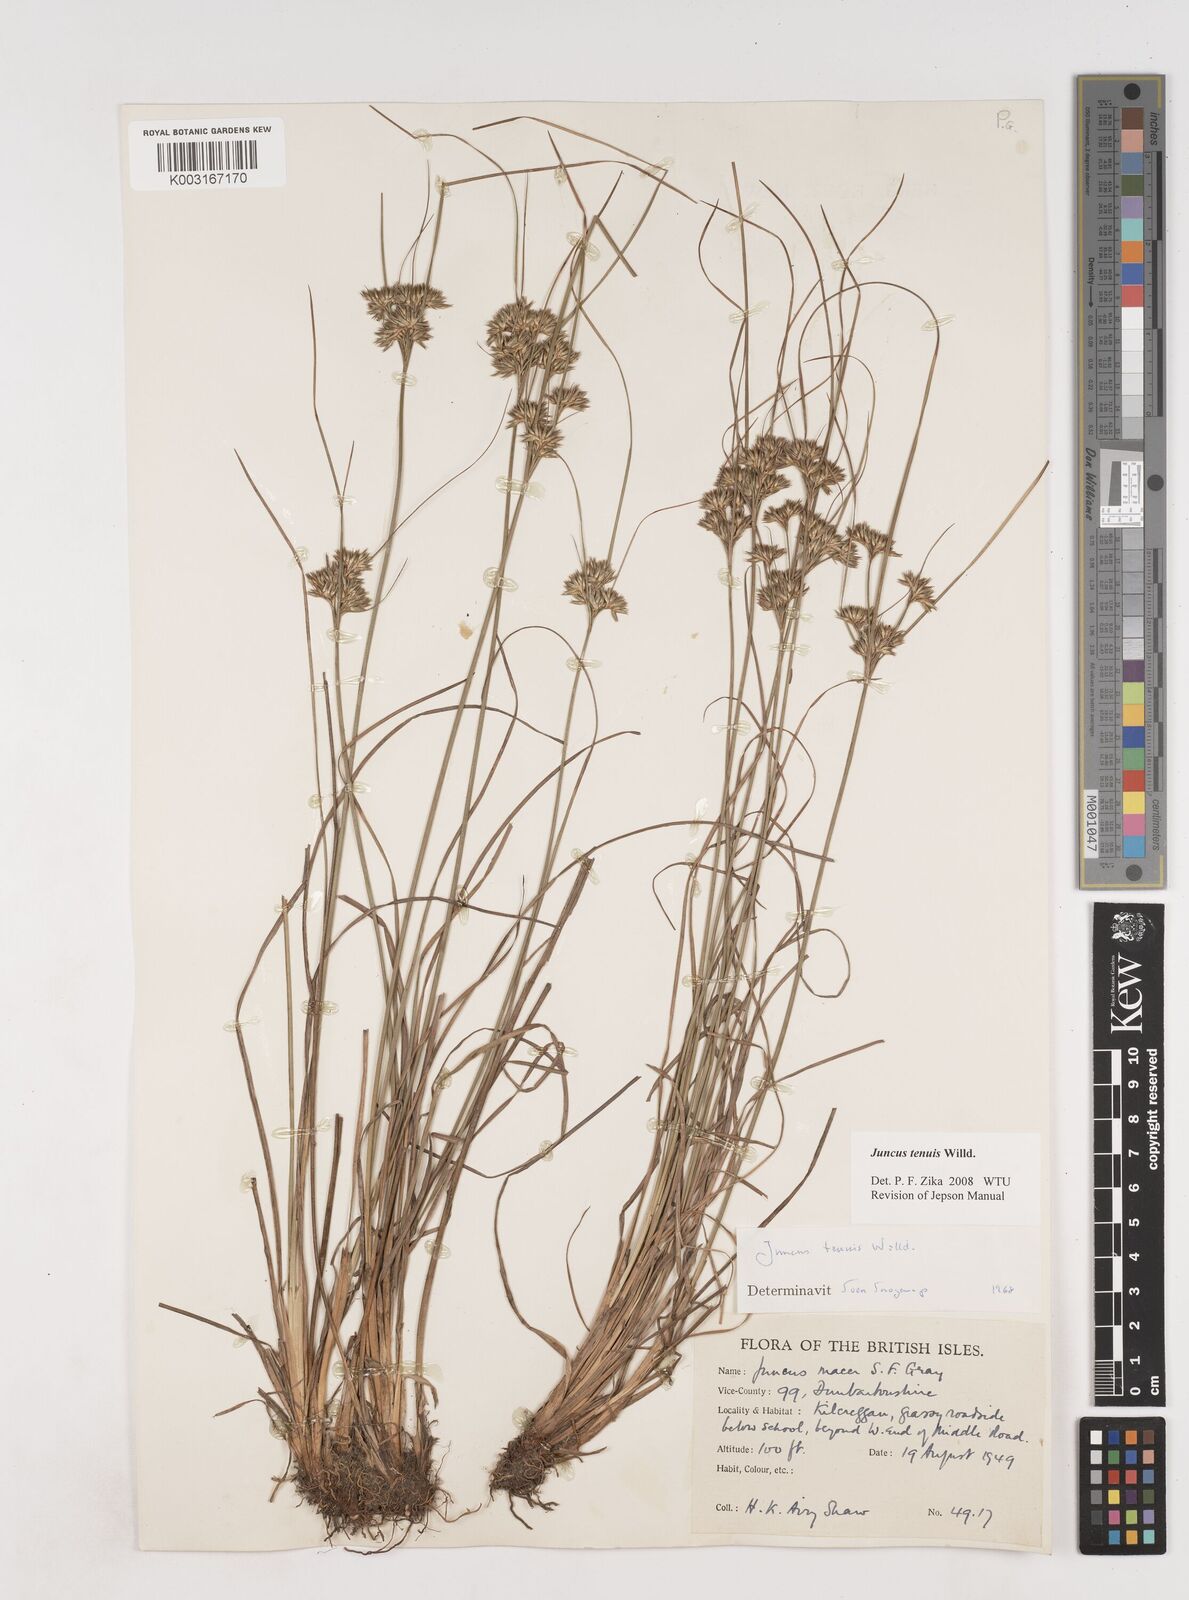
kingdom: Plantae
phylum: Tracheophyta
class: Liliopsida
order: Poales
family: Juncaceae
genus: Juncus
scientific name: Juncus tenuis
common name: Slender rush
